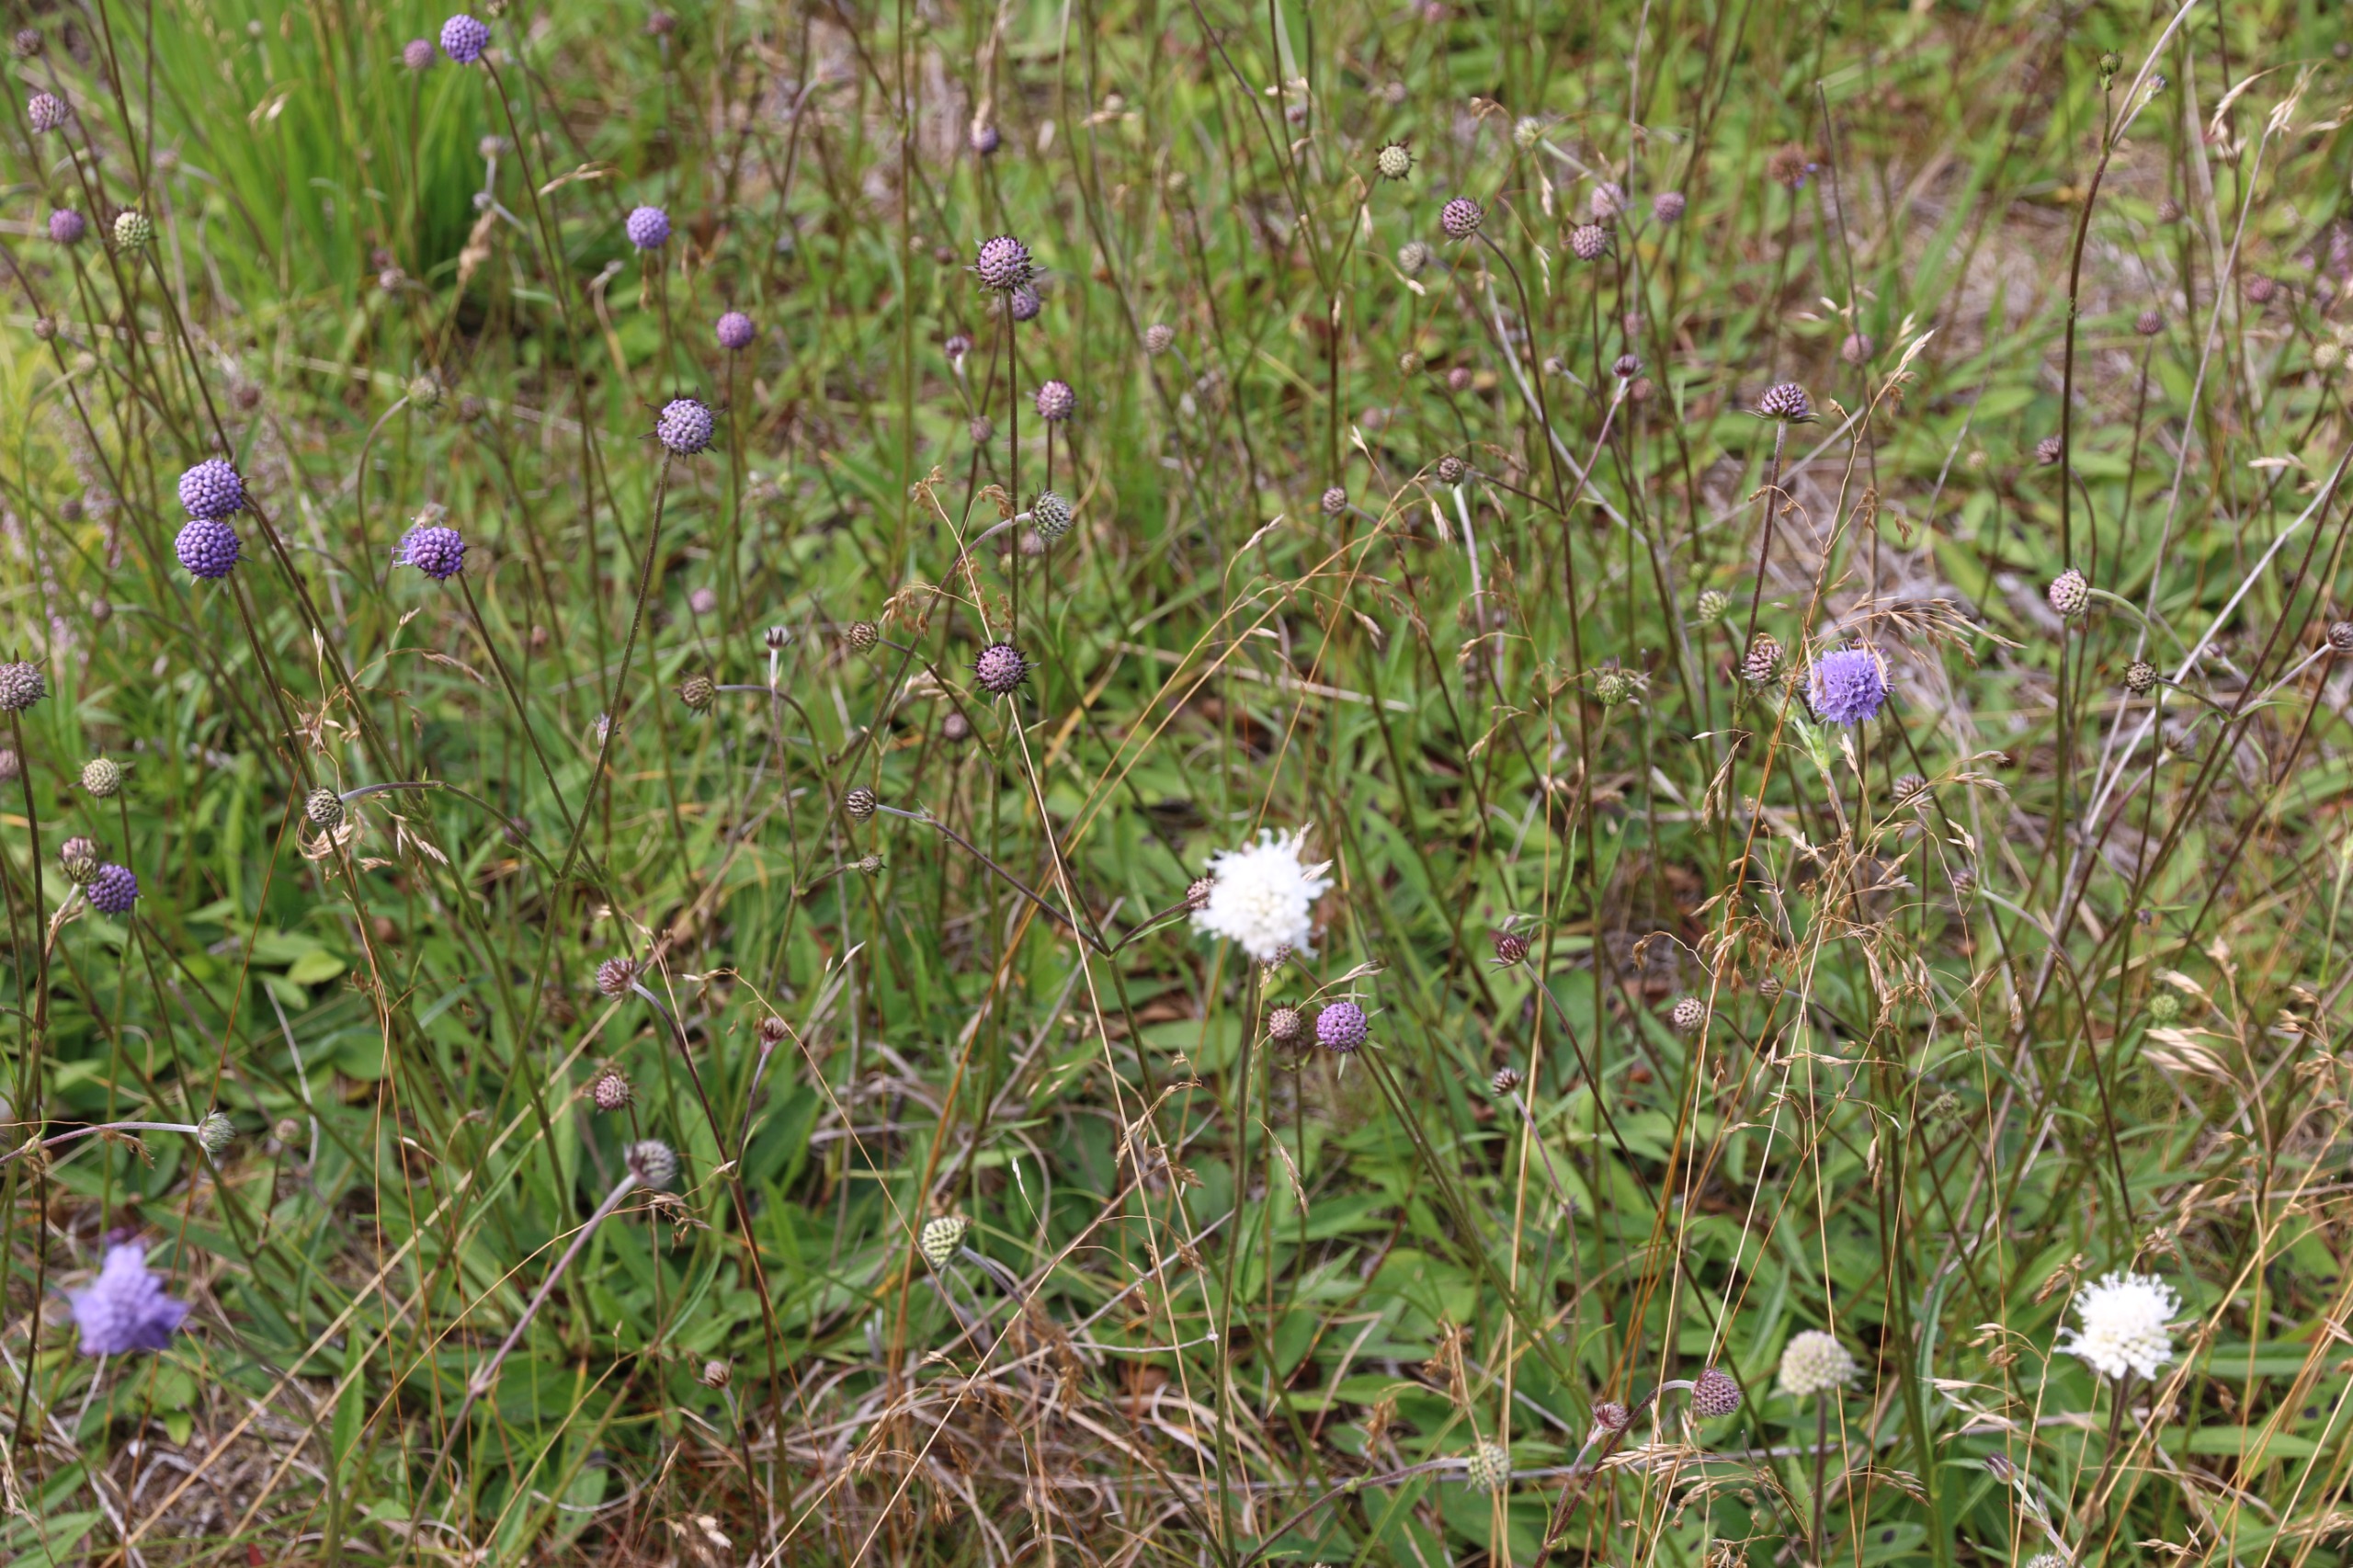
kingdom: Plantae
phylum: Tracheophyta
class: Magnoliopsida
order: Dipsacales
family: Caprifoliaceae
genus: Succisa
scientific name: Succisa pratensis
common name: Djævelsbid
